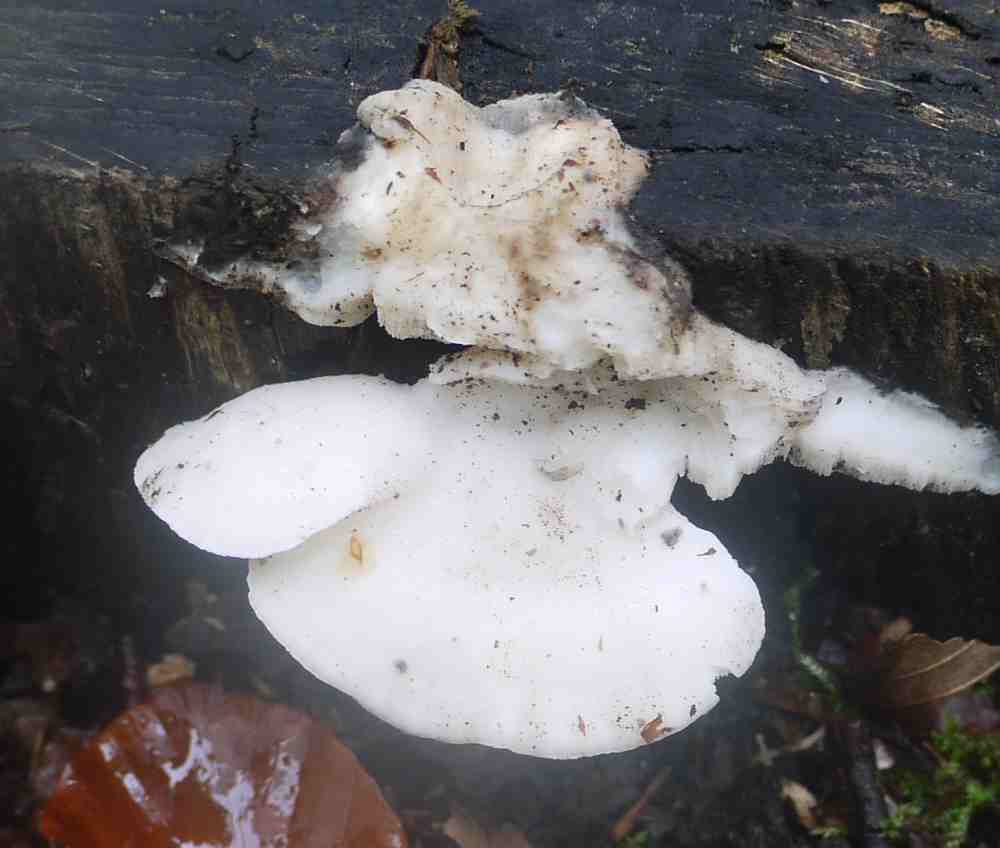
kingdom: Fungi
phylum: Basidiomycota
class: Agaricomycetes
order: Polyporales
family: Incrustoporiaceae
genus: Tyromyces
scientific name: Tyromyces chioneus
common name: stor blødporesvamp
